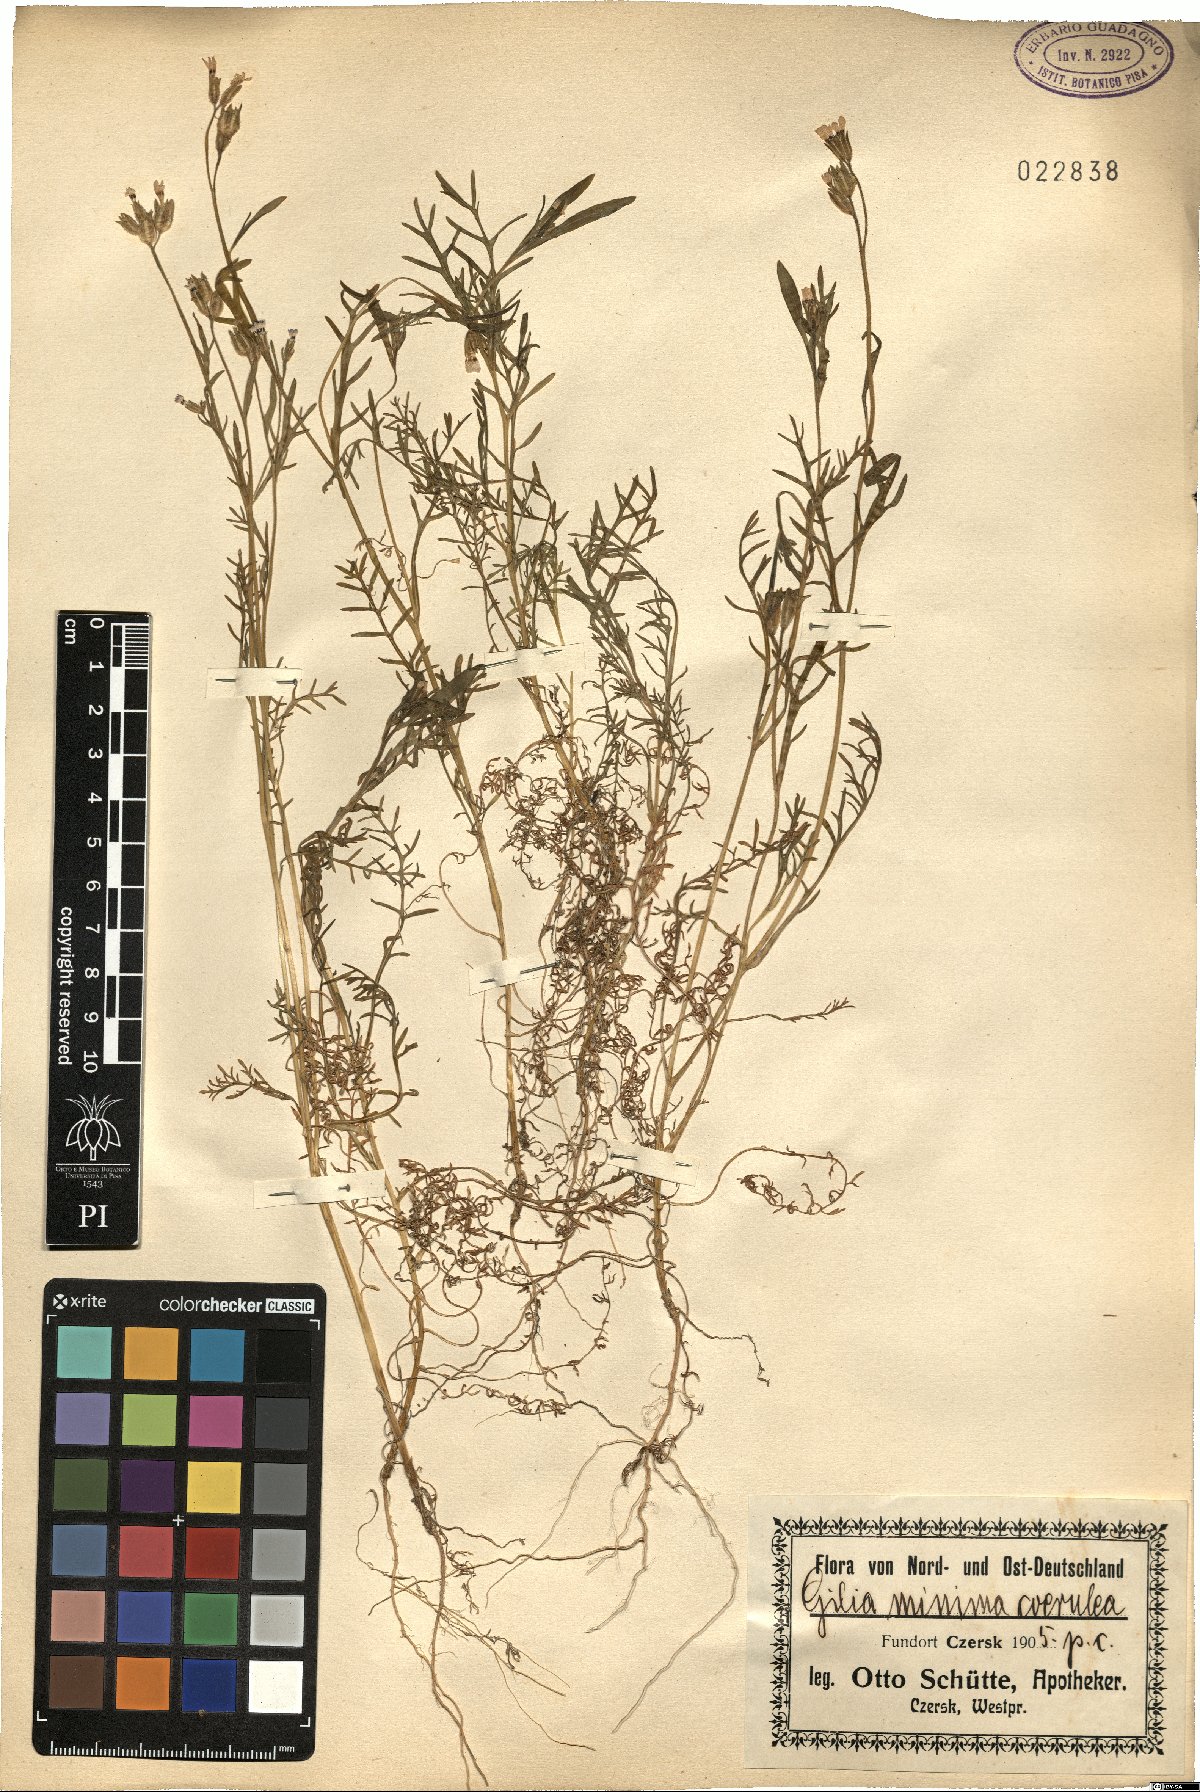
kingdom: Plantae
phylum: Tracheophyta
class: Magnoliopsida
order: Ericales
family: Polemoniaceae
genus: Navarretia
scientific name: Navarretia leucocephala
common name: White-flowered navarretia
